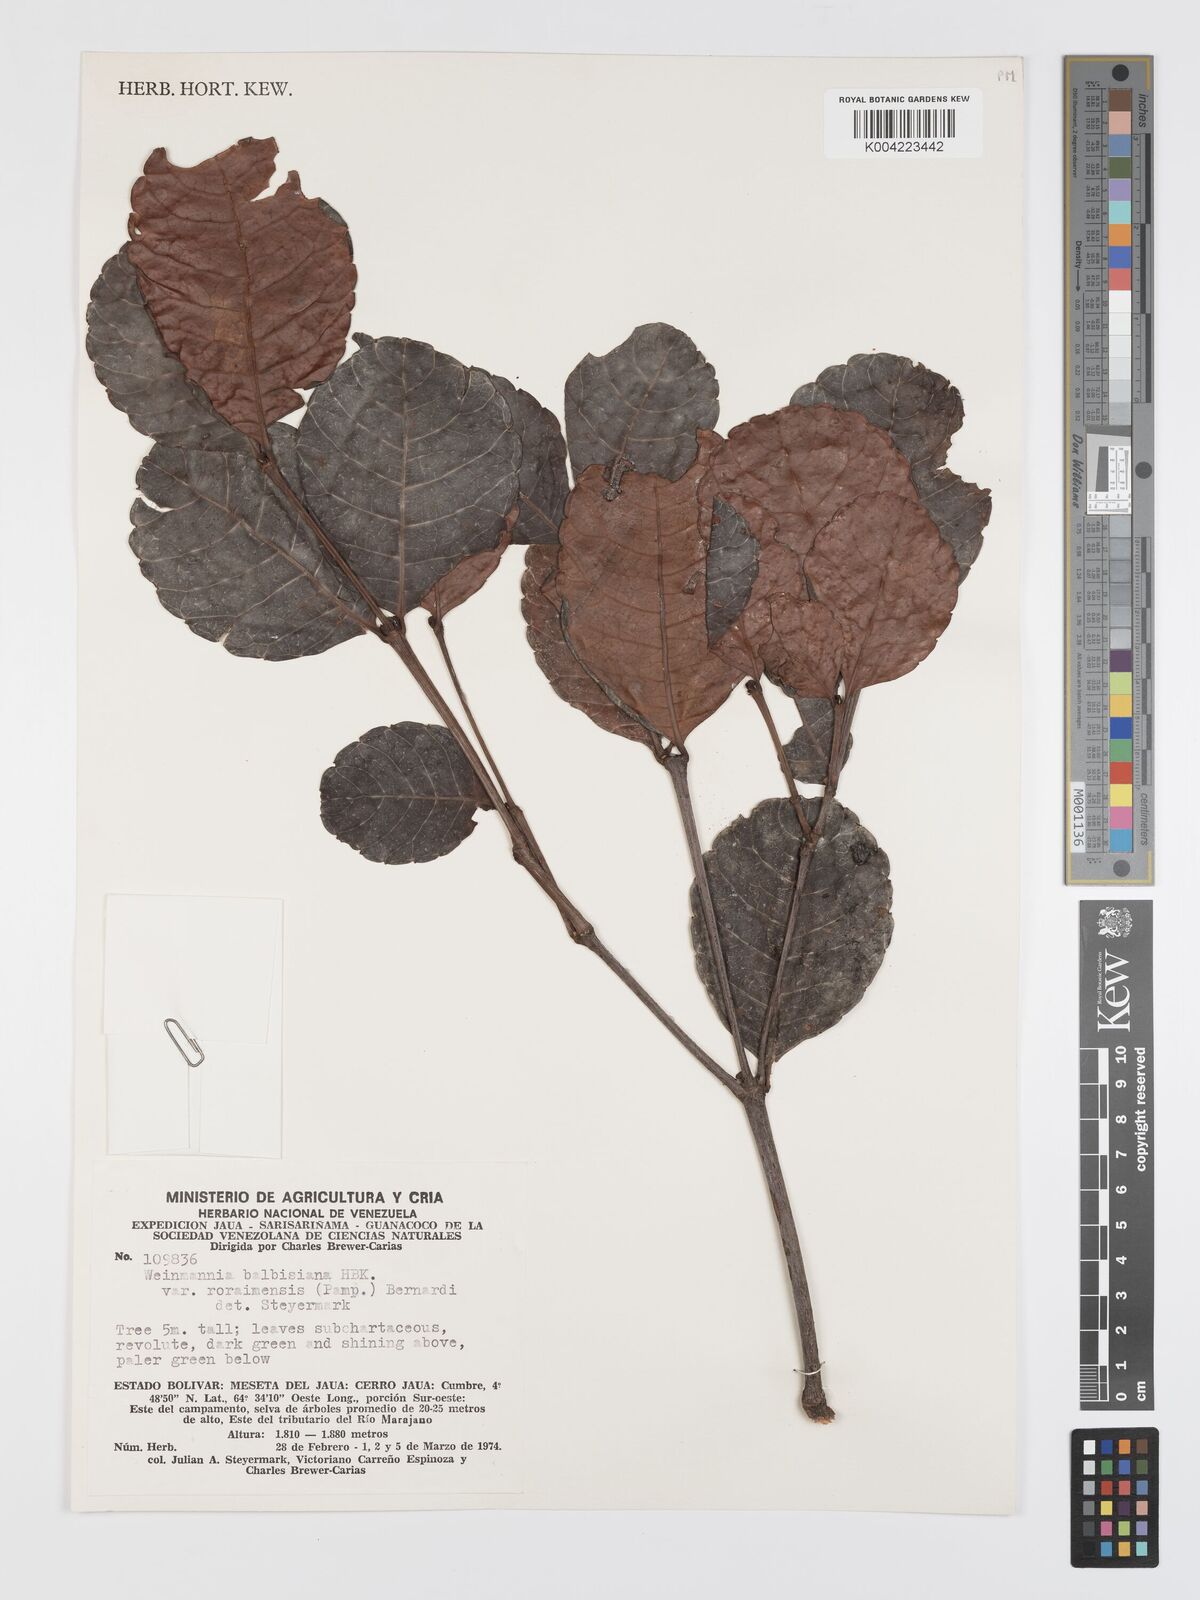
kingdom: Plantae
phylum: Tracheophyta
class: Magnoliopsida
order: Oxalidales
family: Cunoniaceae
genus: Weinmannia
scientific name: Weinmannia elliptica
